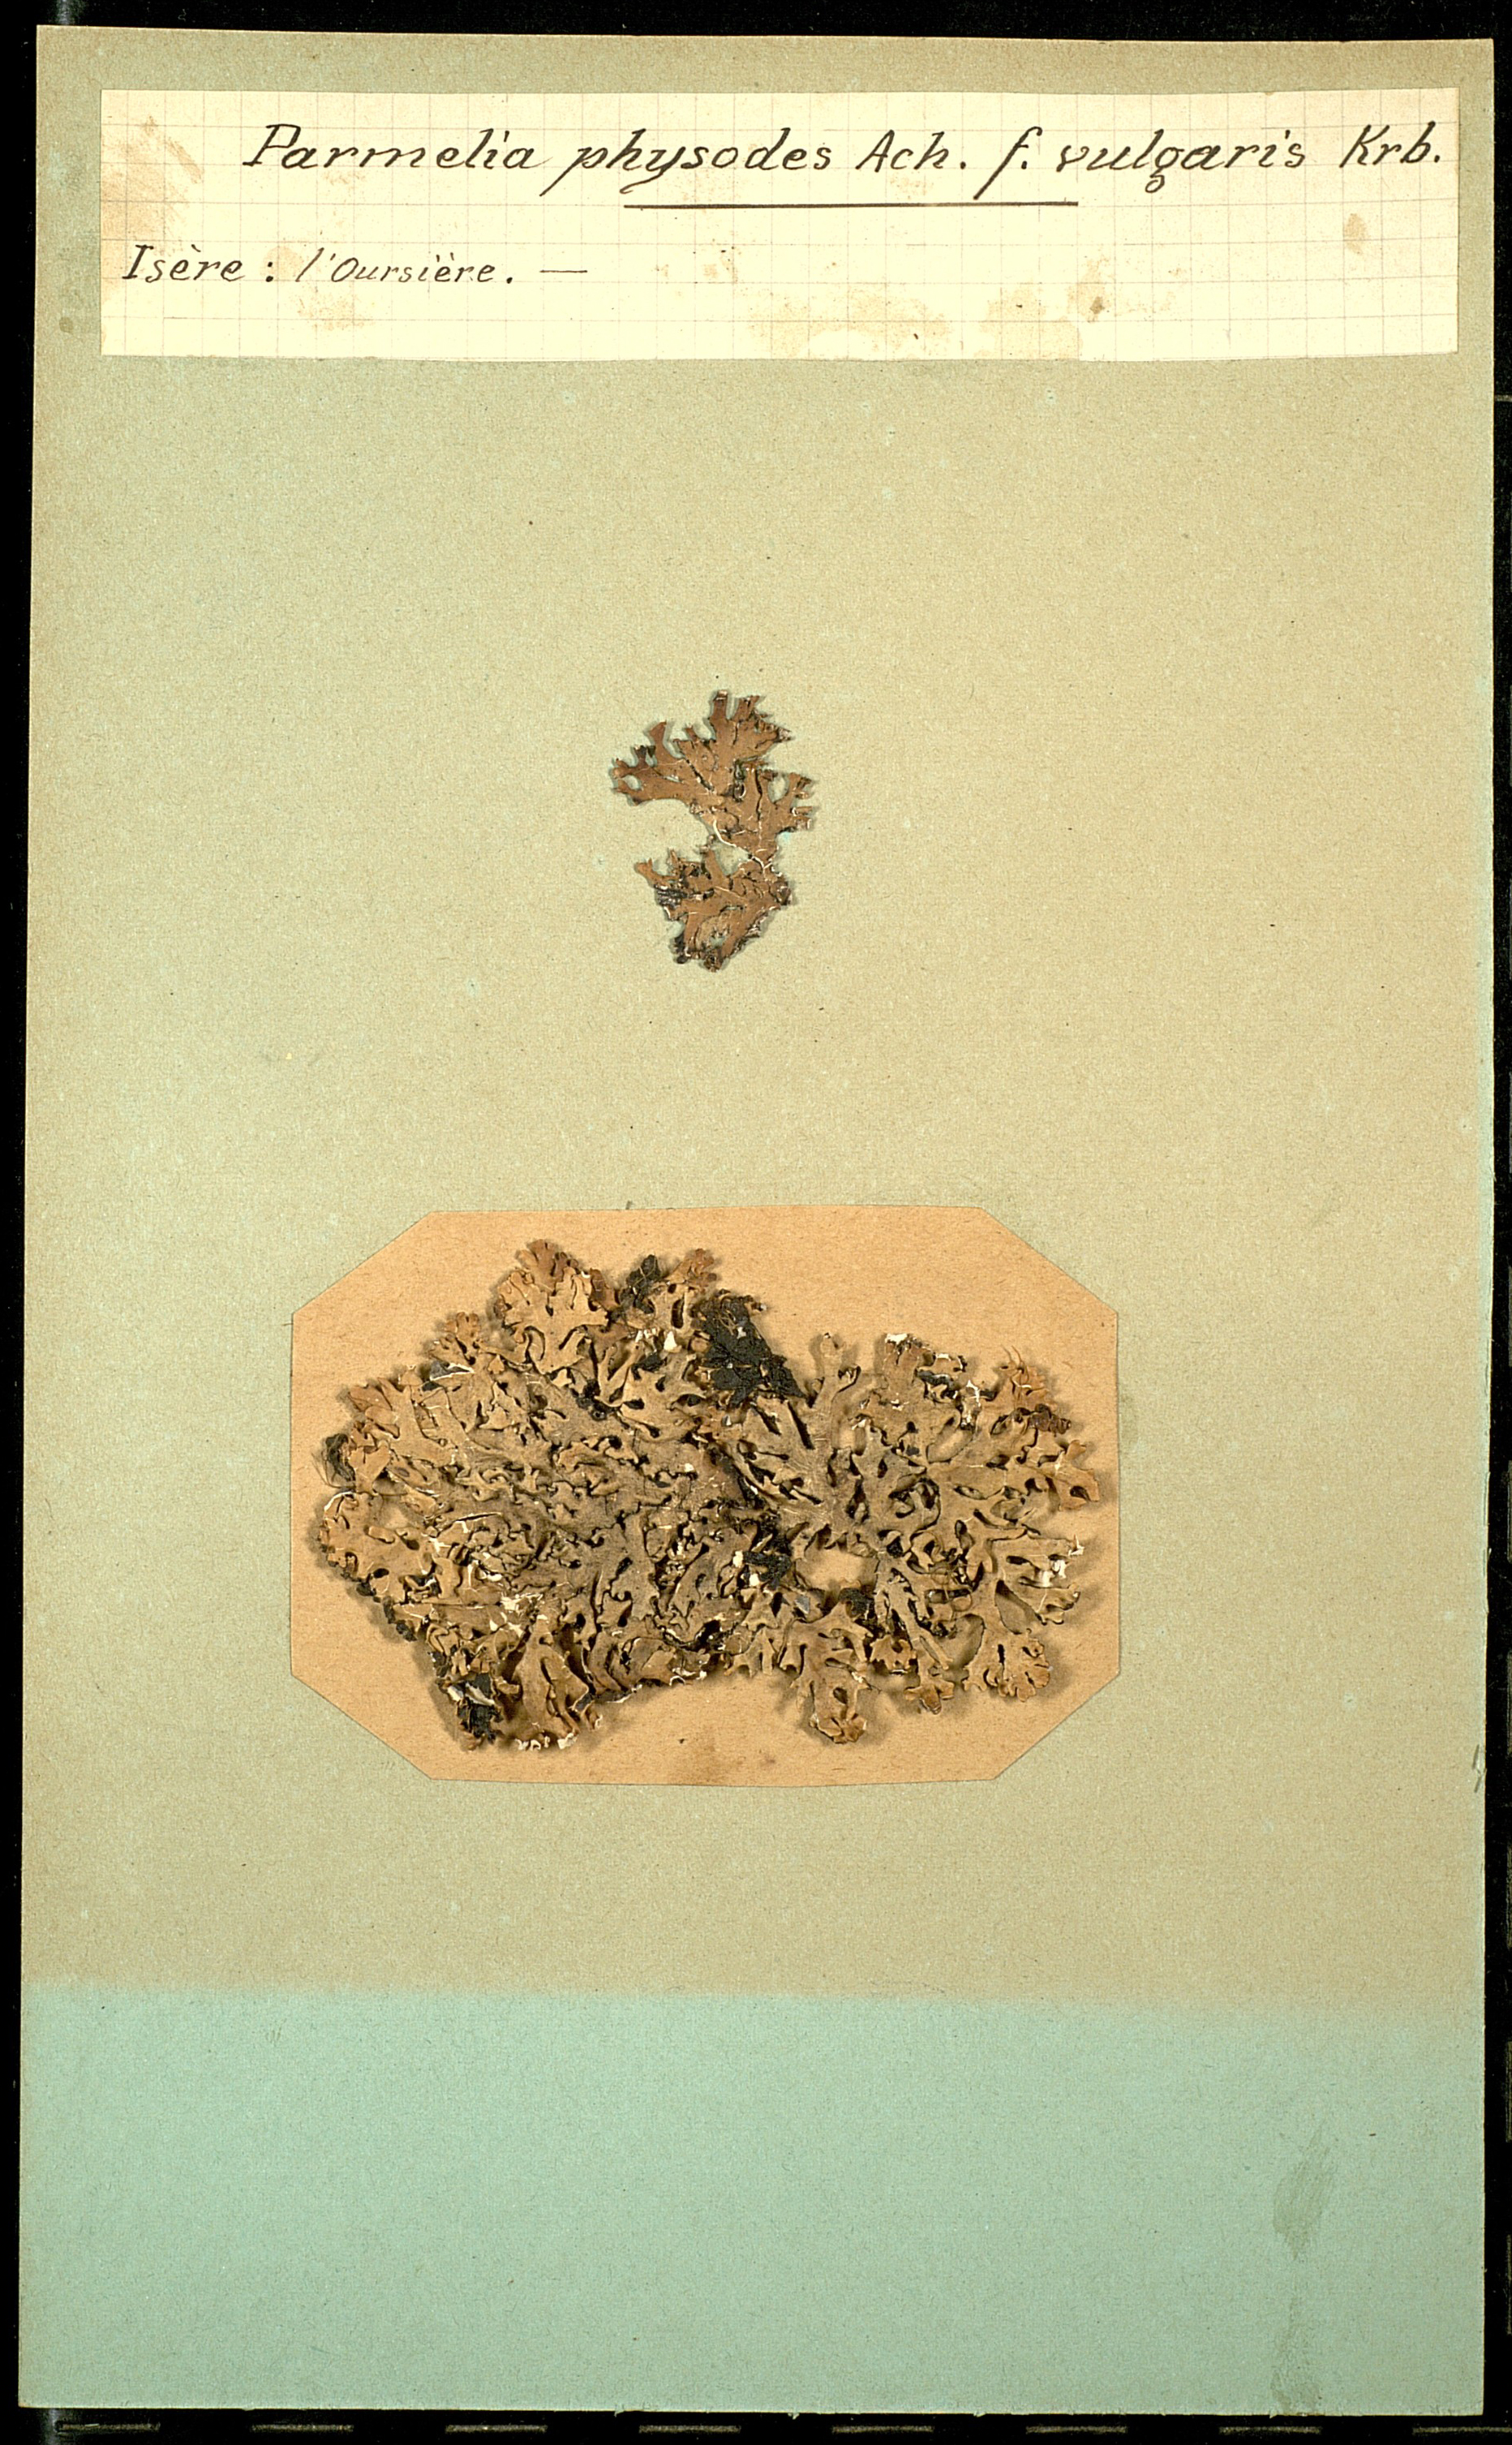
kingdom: Fungi
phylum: Ascomycota
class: Lecanoromycetes
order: Lecanorales
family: Parmeliaceae
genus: Hypogymnia
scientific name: Hypogymnia physodes
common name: Dark crottle
